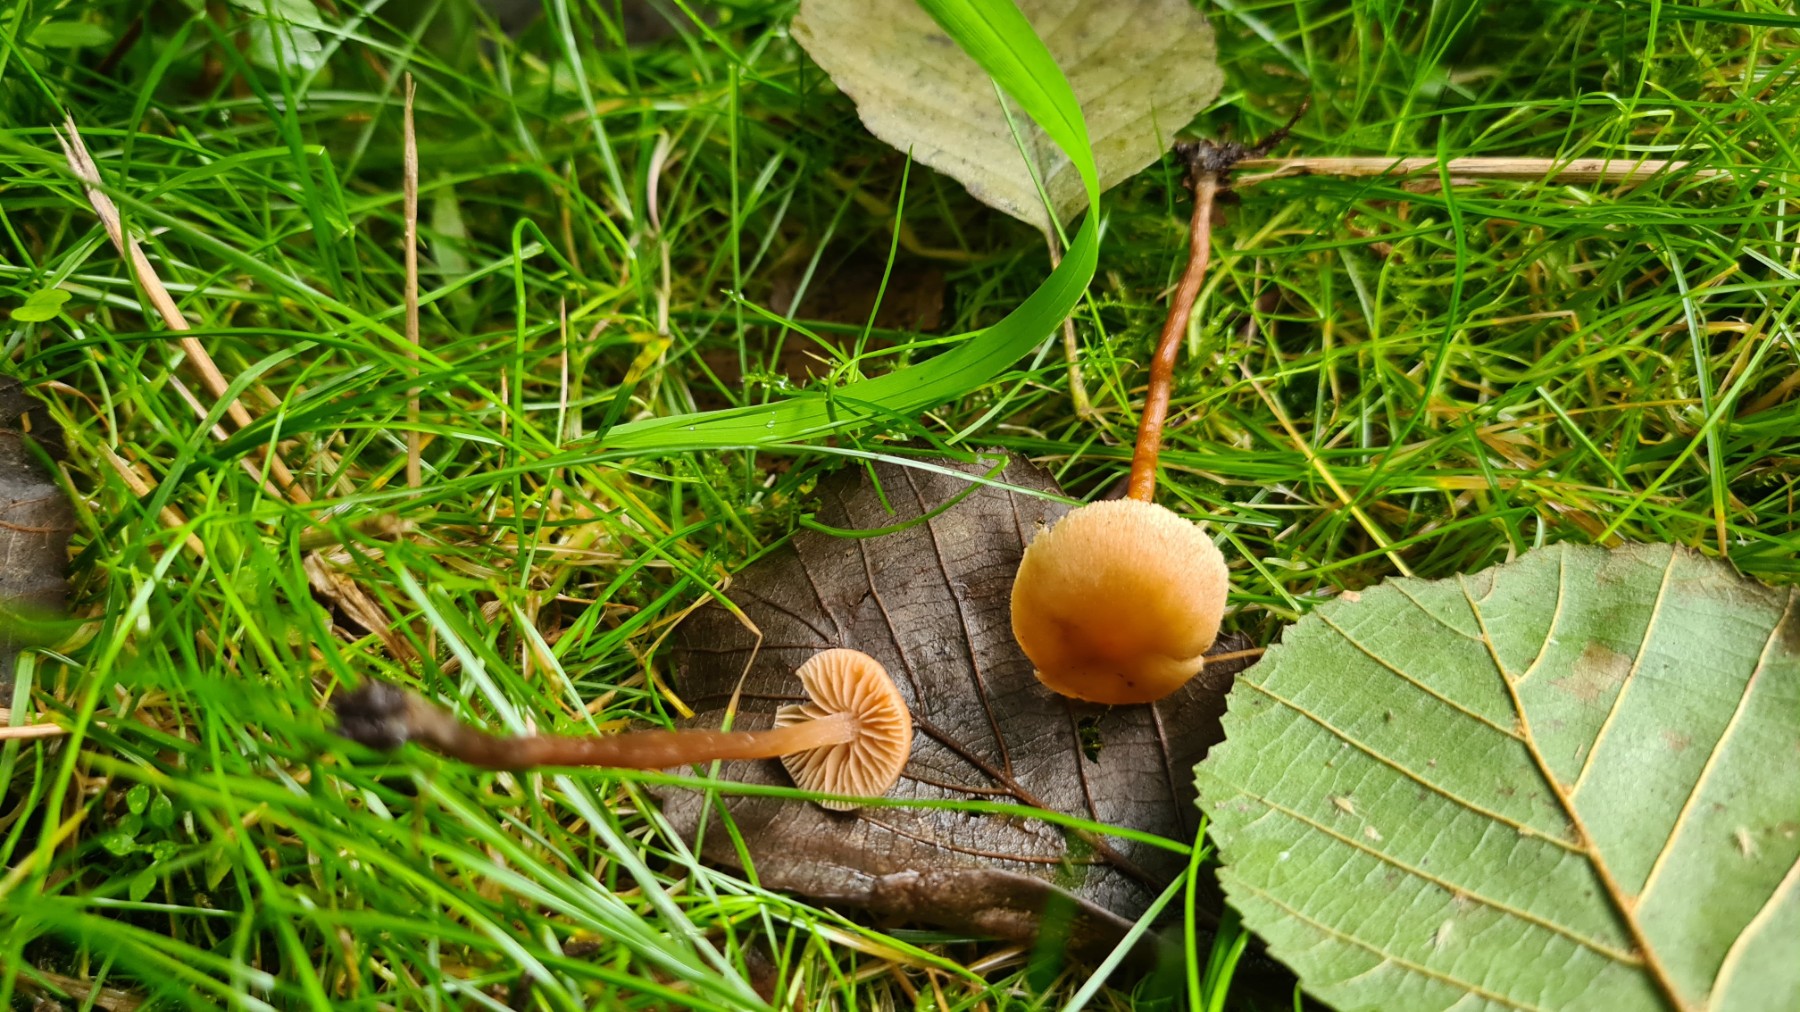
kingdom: Fungi
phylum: Basidiomycota
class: Agaricomycetes
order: Agaricales
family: Hymenogastraceae
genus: Naucoria
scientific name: Naucoria
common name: knaphat
